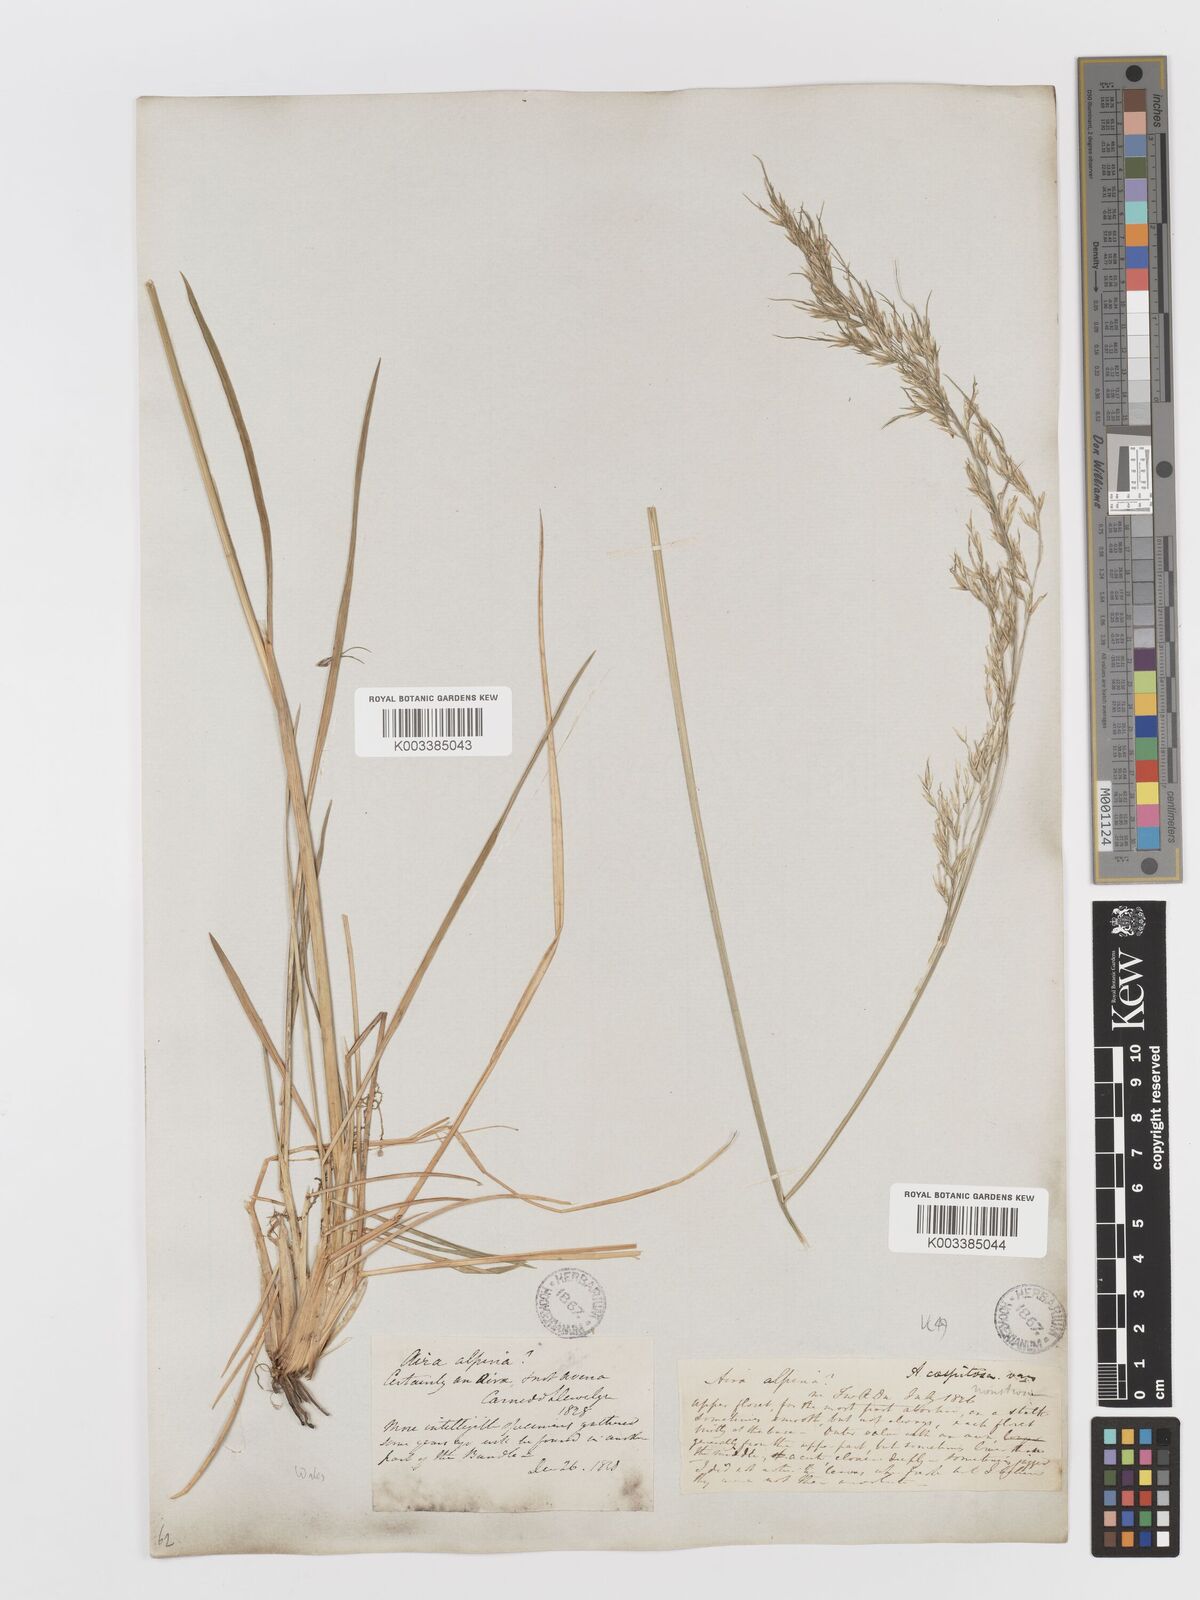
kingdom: Plantae
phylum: Tracheophyta
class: Liliopsida
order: Poales
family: Poaceae
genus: Deschampsia
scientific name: Deschampsia cespitosa
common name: Tufted hair-grass
